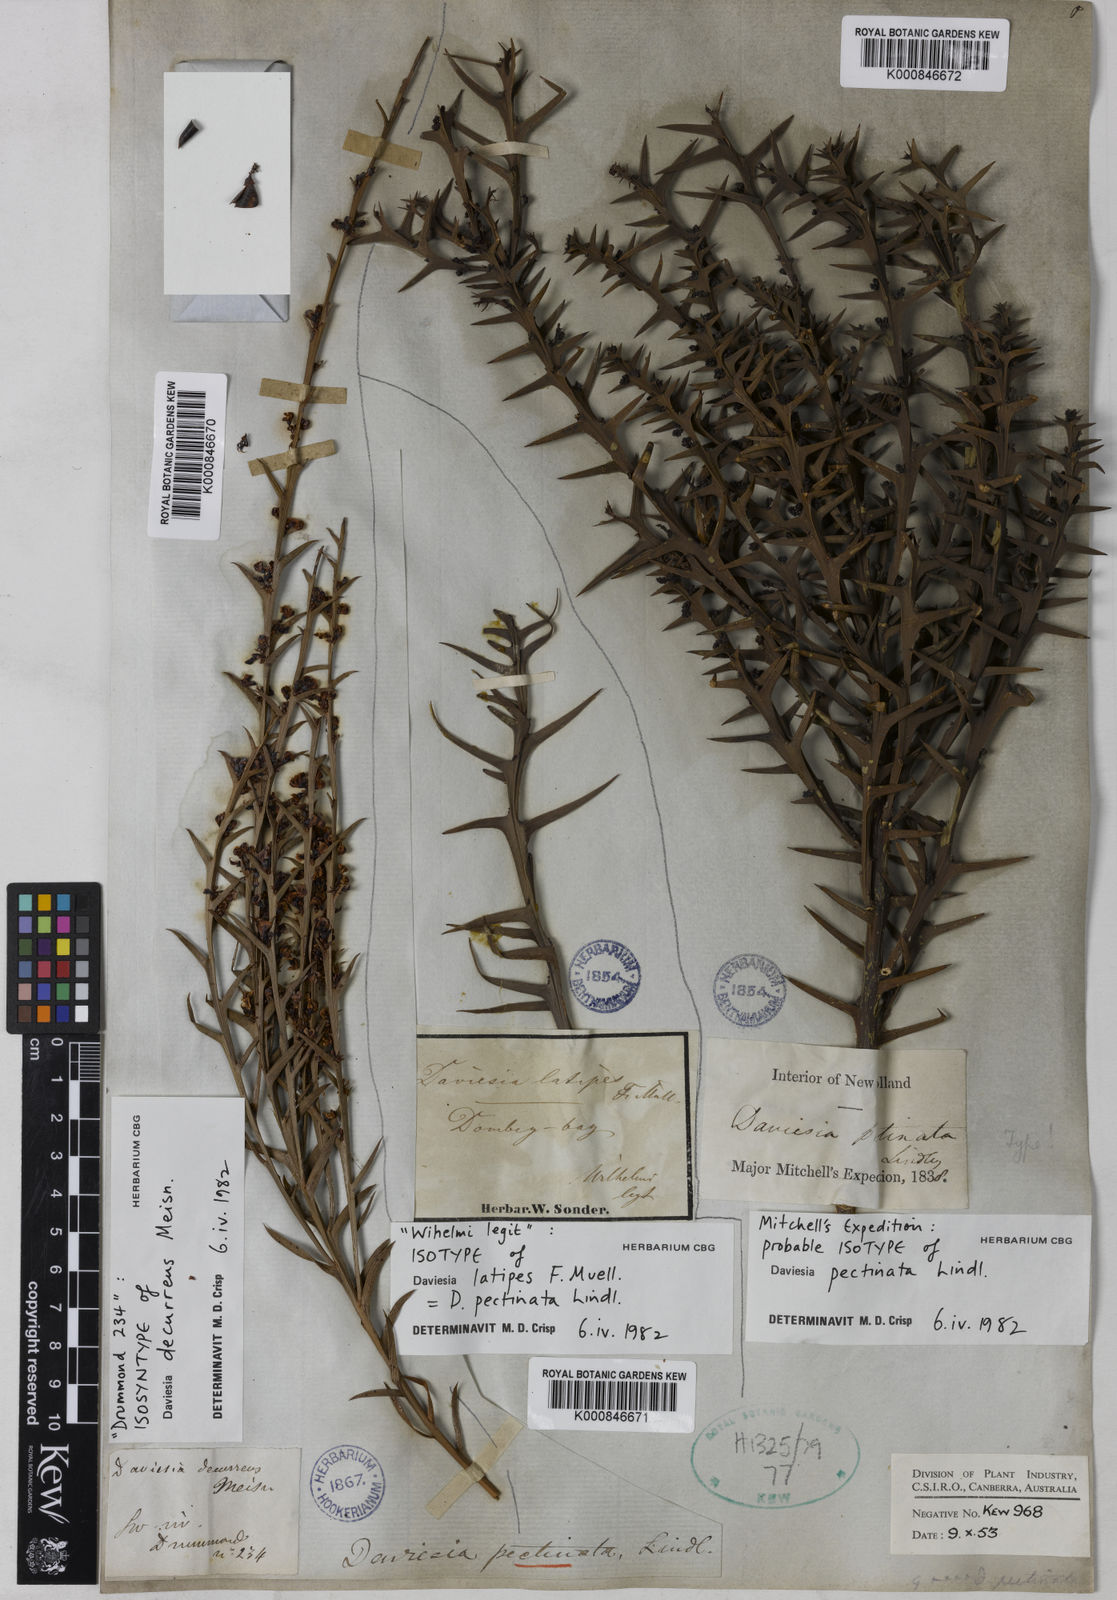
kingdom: Plantae
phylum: Tracheophyta
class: Magnoliopsida
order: Fabales
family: Fabaceae
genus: Daviesia
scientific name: Daviesia pectinata
